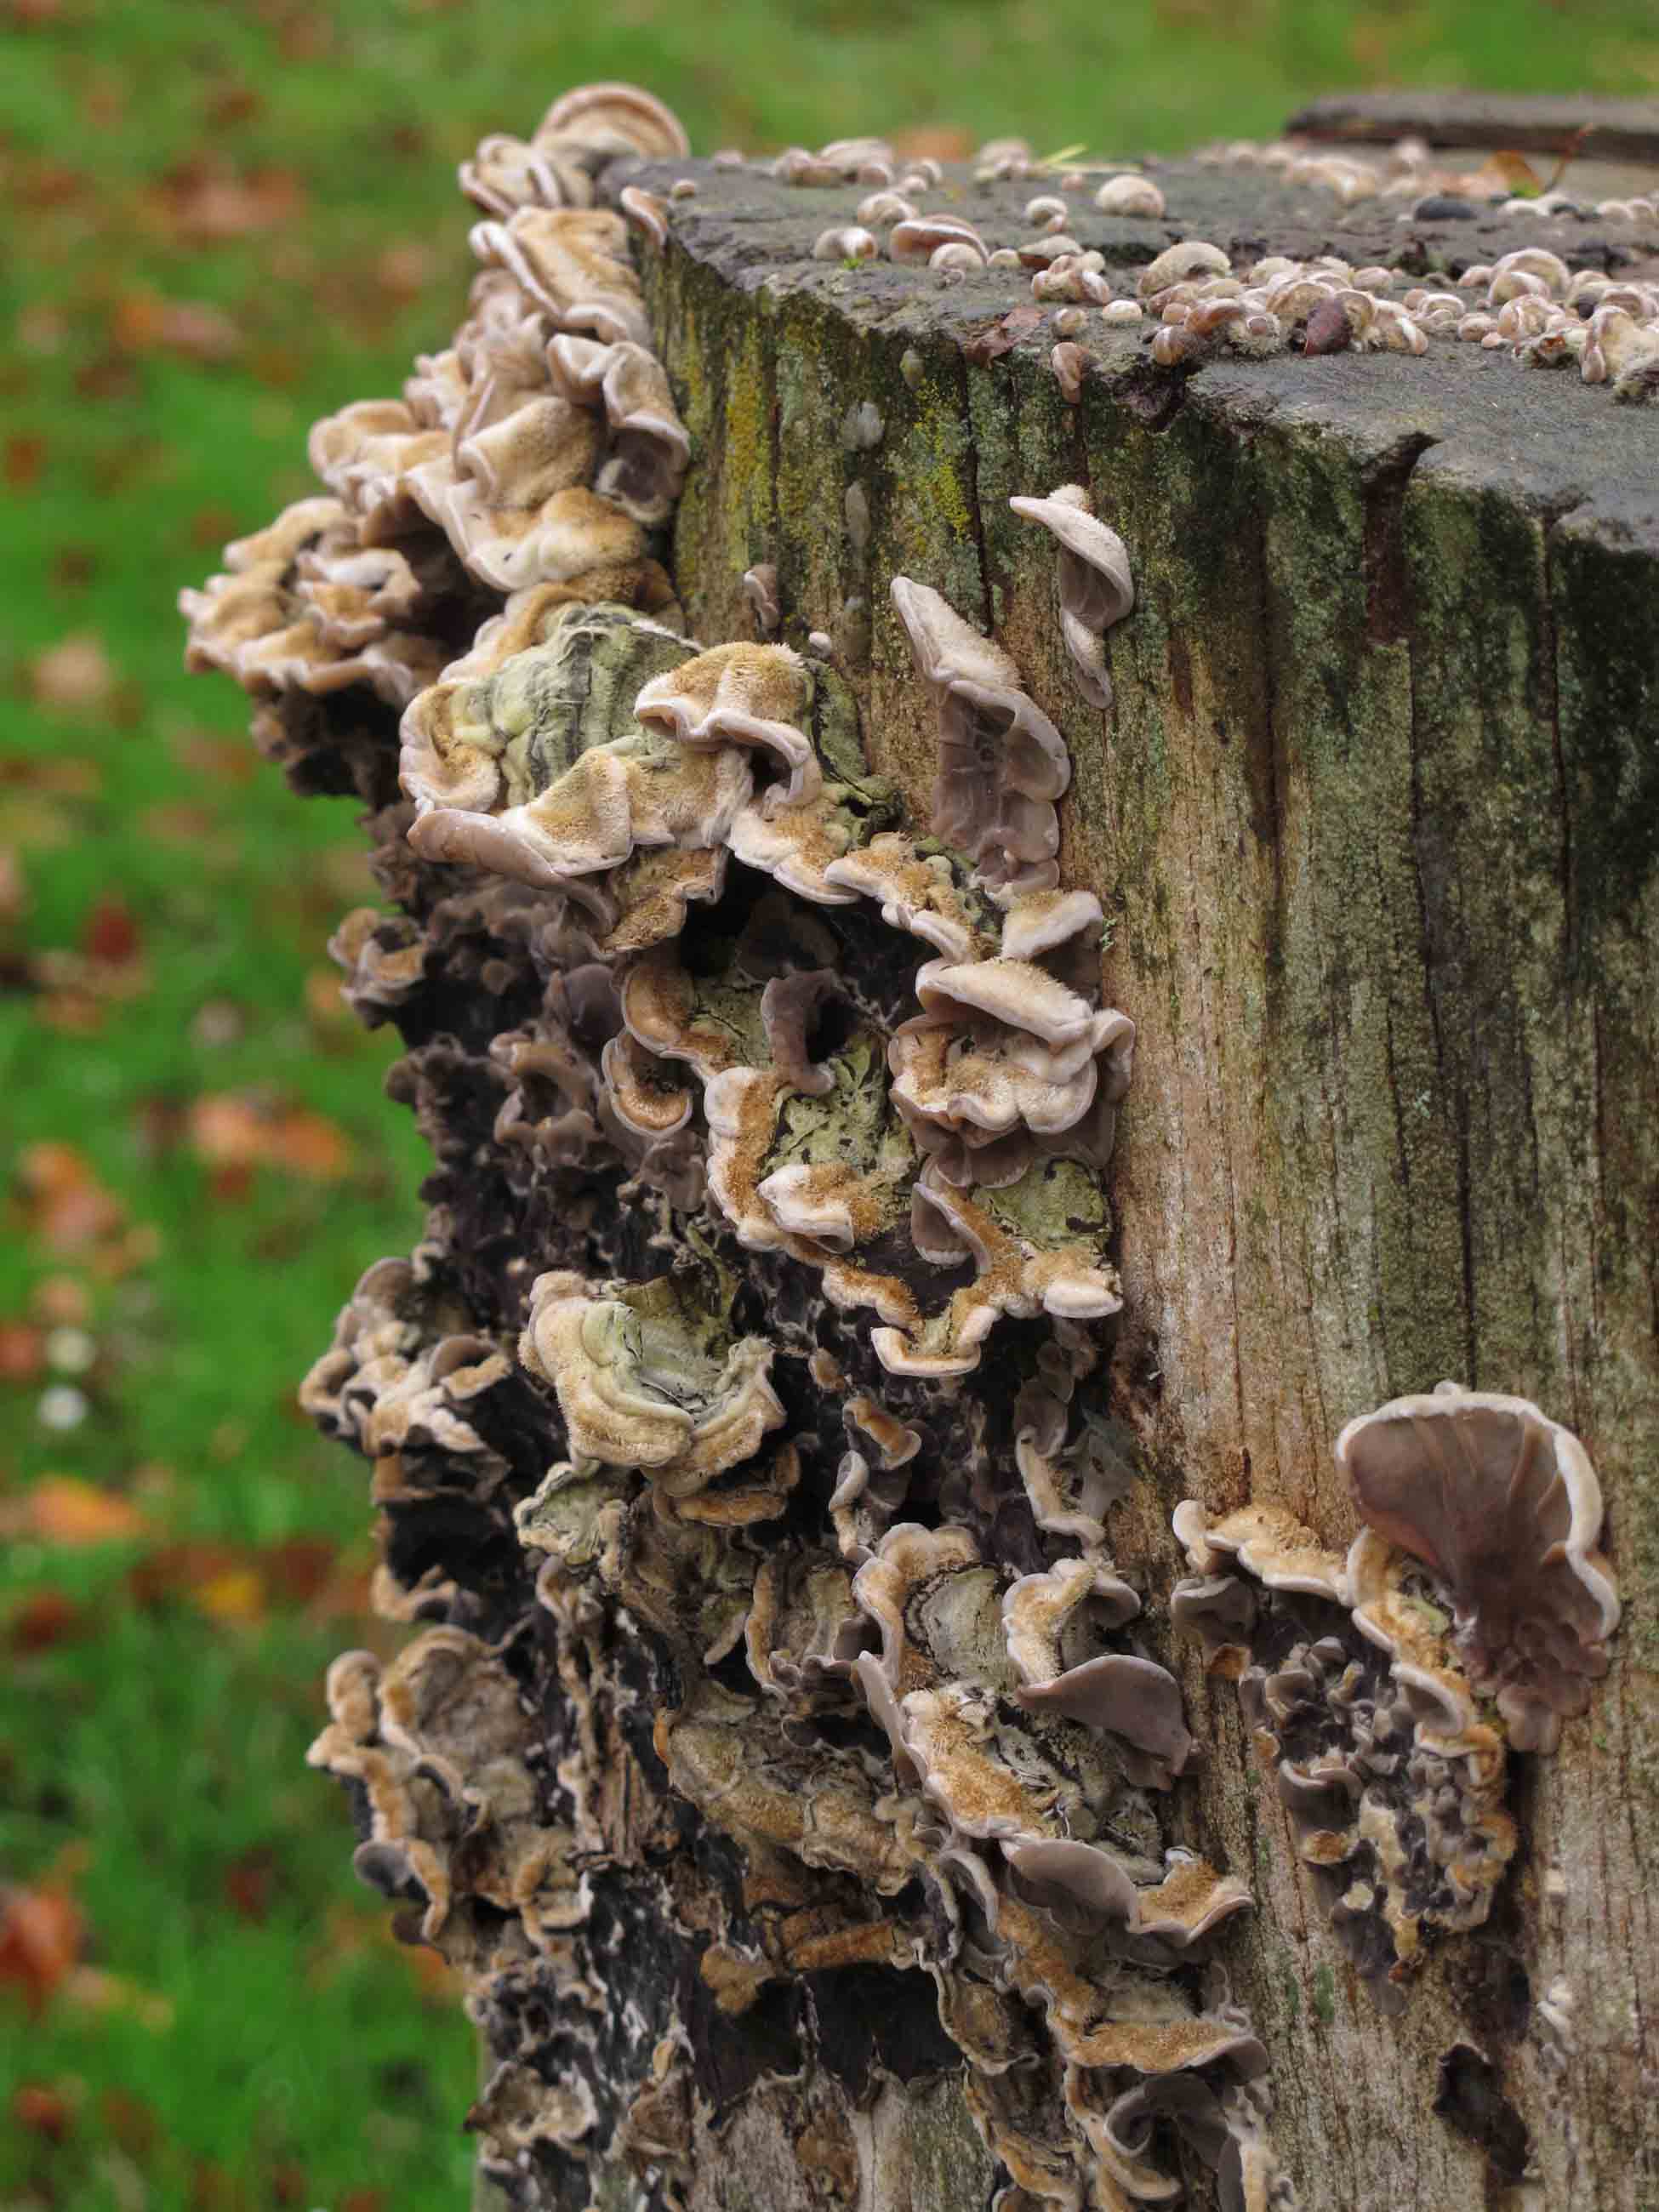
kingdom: Fungi
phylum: Basidiomycota
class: Agaricomycetes
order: Auriculariales
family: Auriculariaceae
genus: Auricularia
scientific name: Auricularia mesenterica
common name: håret judasøre
